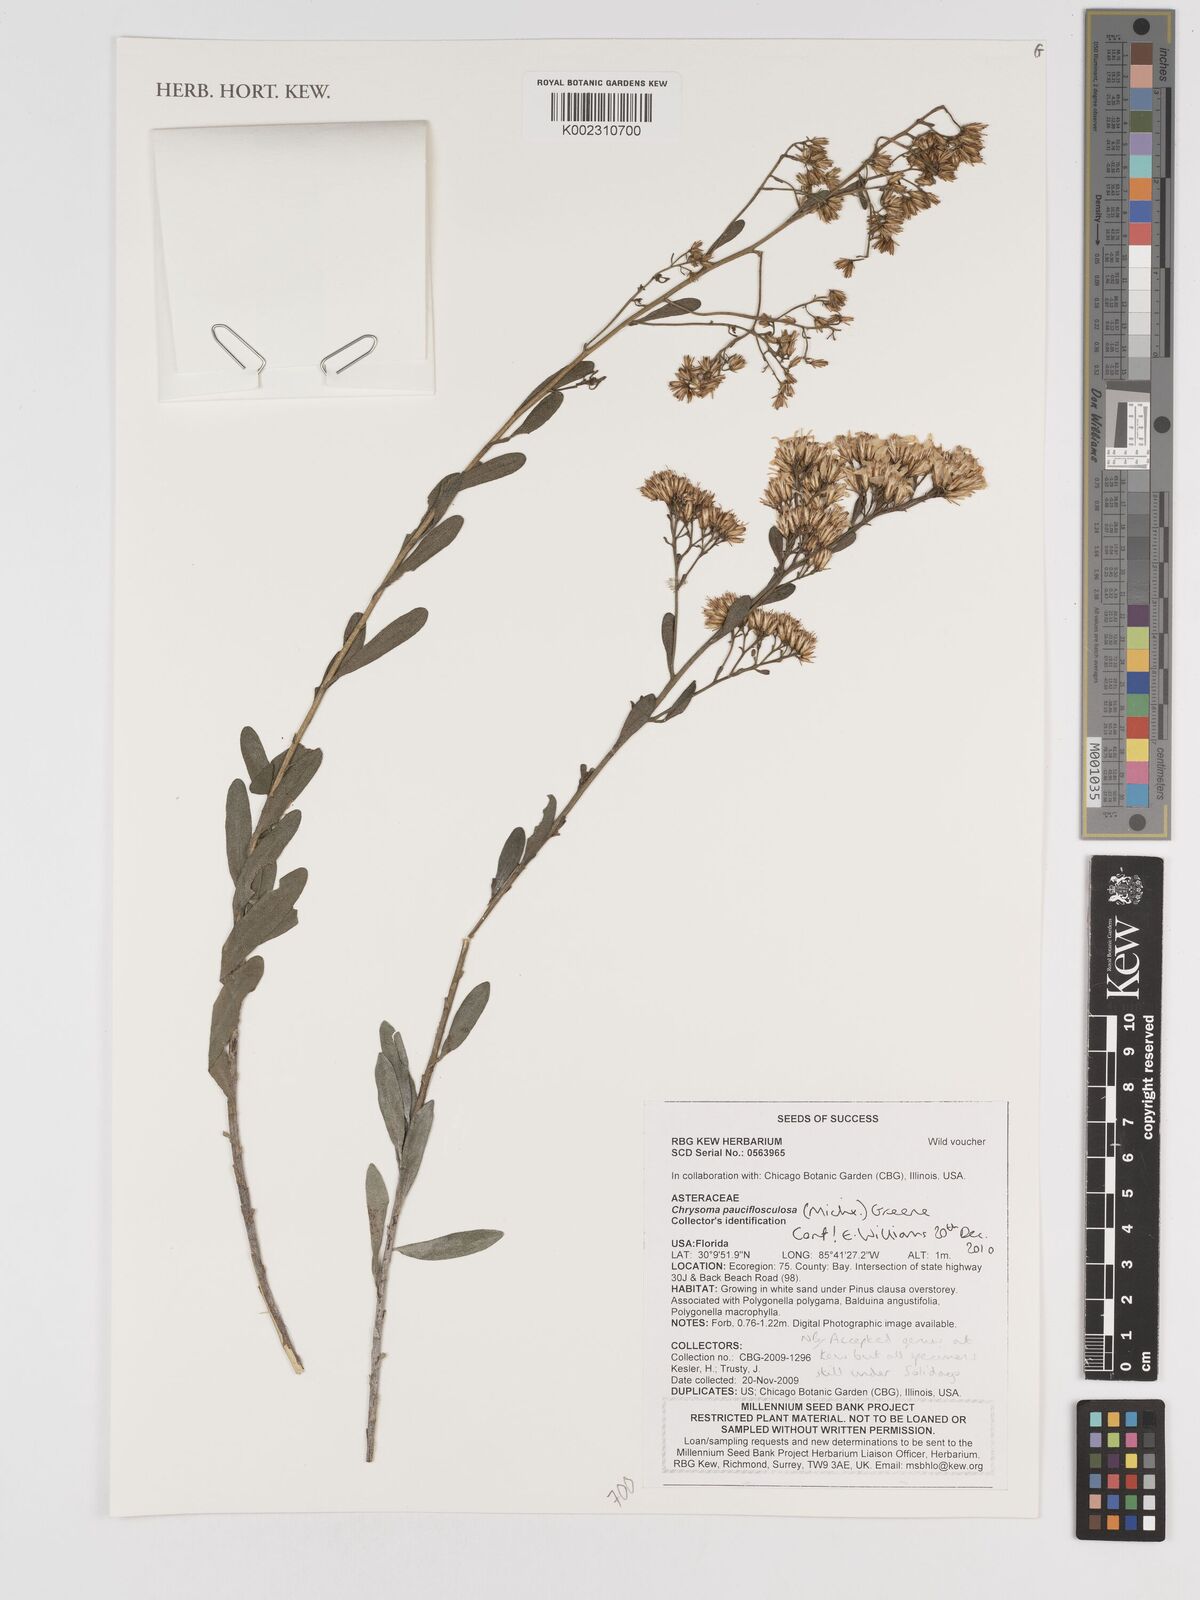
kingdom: Plantae
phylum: Tracheophyta
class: Magnoliopsida
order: Asterales
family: Asteraceae
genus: Chrysoma
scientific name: Chrysoma pauciflosculosa
